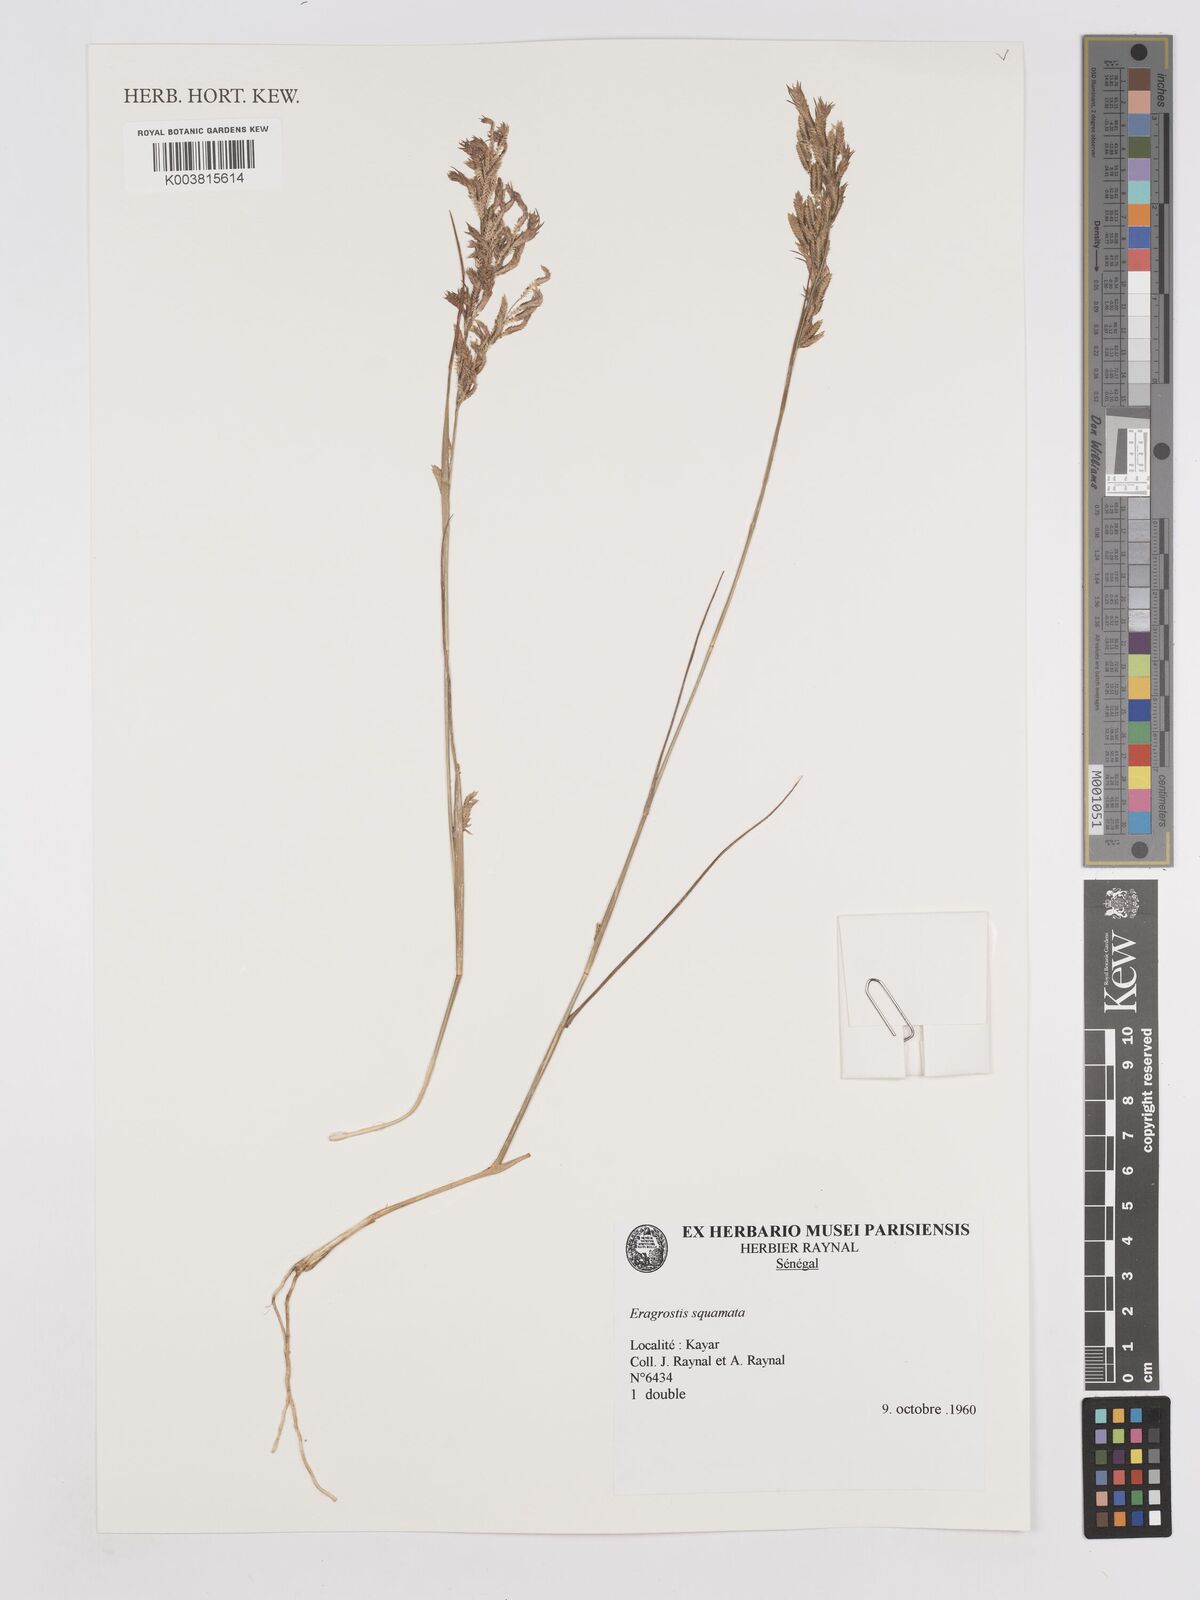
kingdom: Plantae
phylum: Tracheophyta
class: Liliopsida
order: Poales
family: Poaceae
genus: Eragrostis
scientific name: Eragrostis squamata
